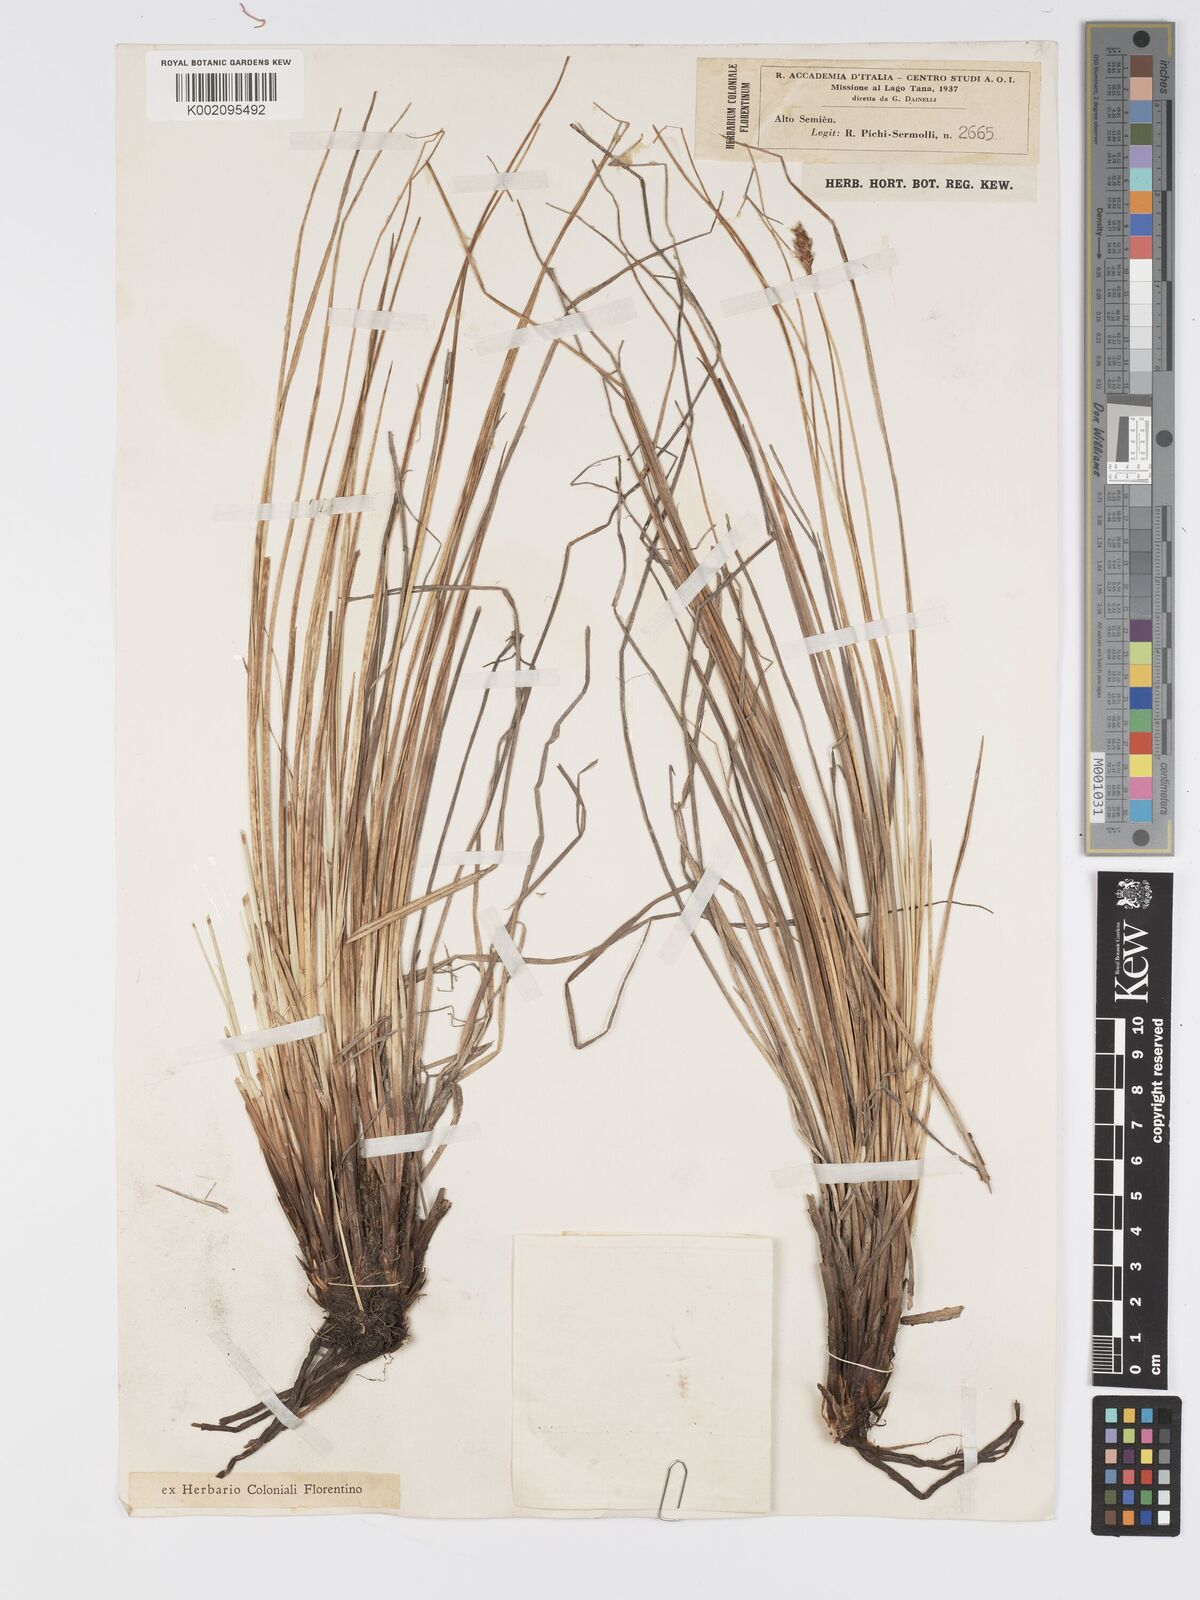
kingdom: Plantae
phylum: Tracheophyta
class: Liliopsida
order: Poales
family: Cyperaceae
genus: Carex
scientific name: Carex monostachya
